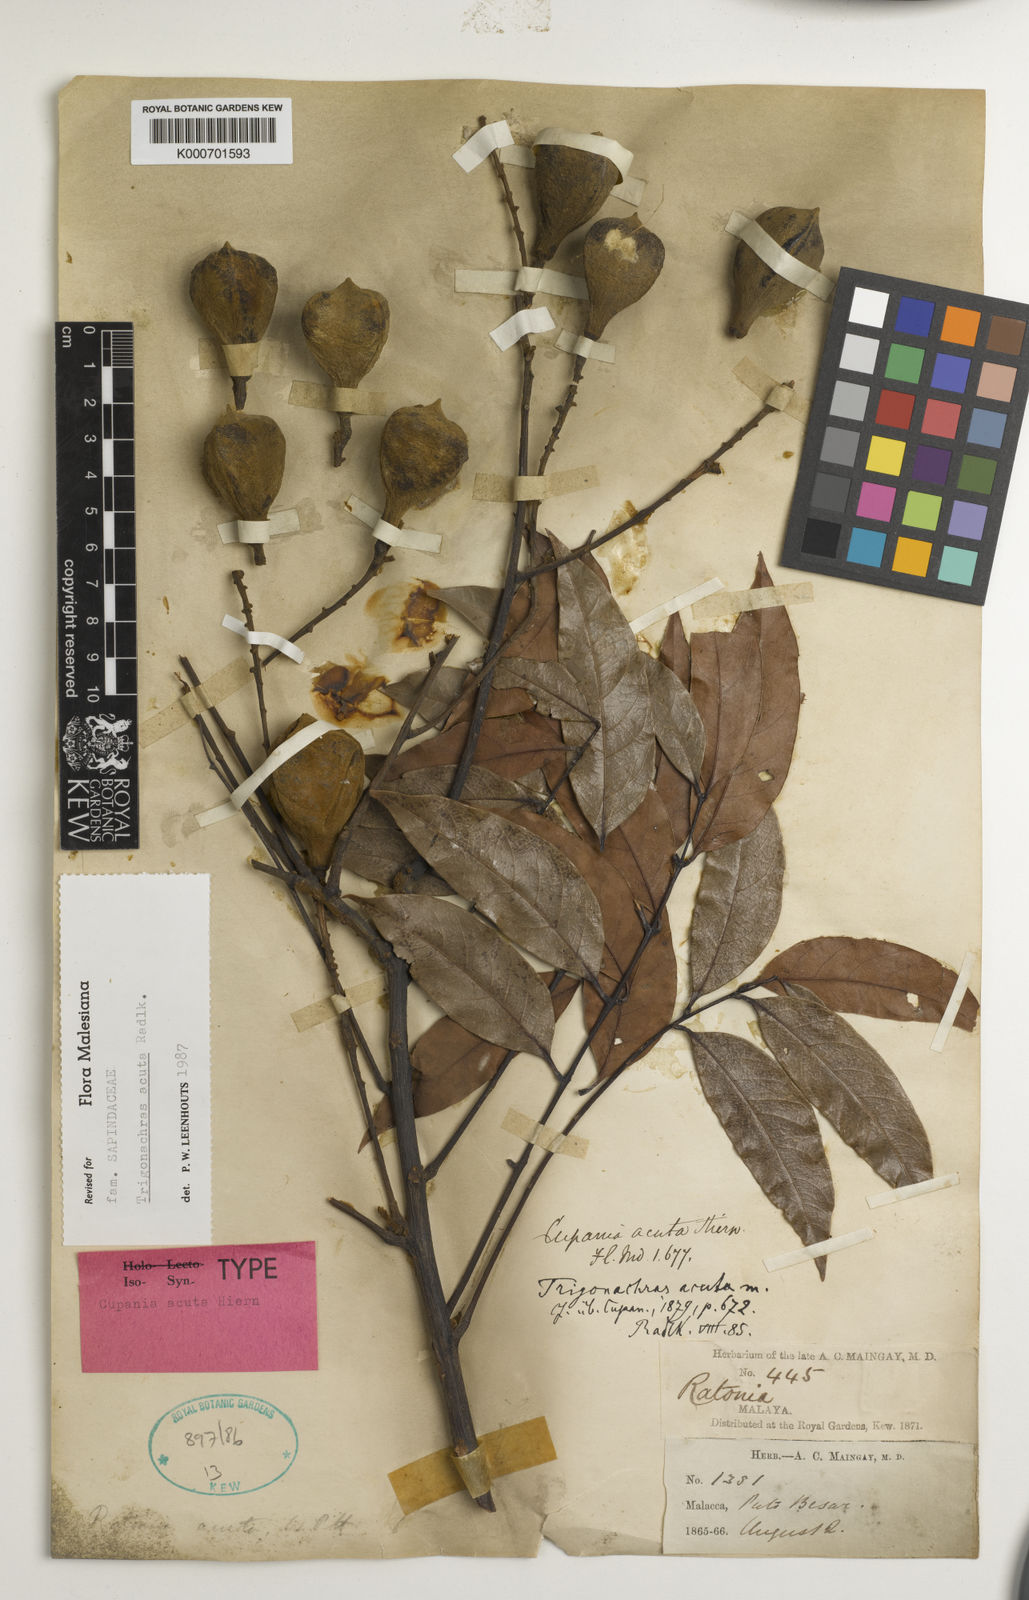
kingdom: Plantae
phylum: Tracheophyta
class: Magnoliopsida
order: Sapindales
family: Sapindaceae
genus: Trigonachras
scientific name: Trigonachras acuta
